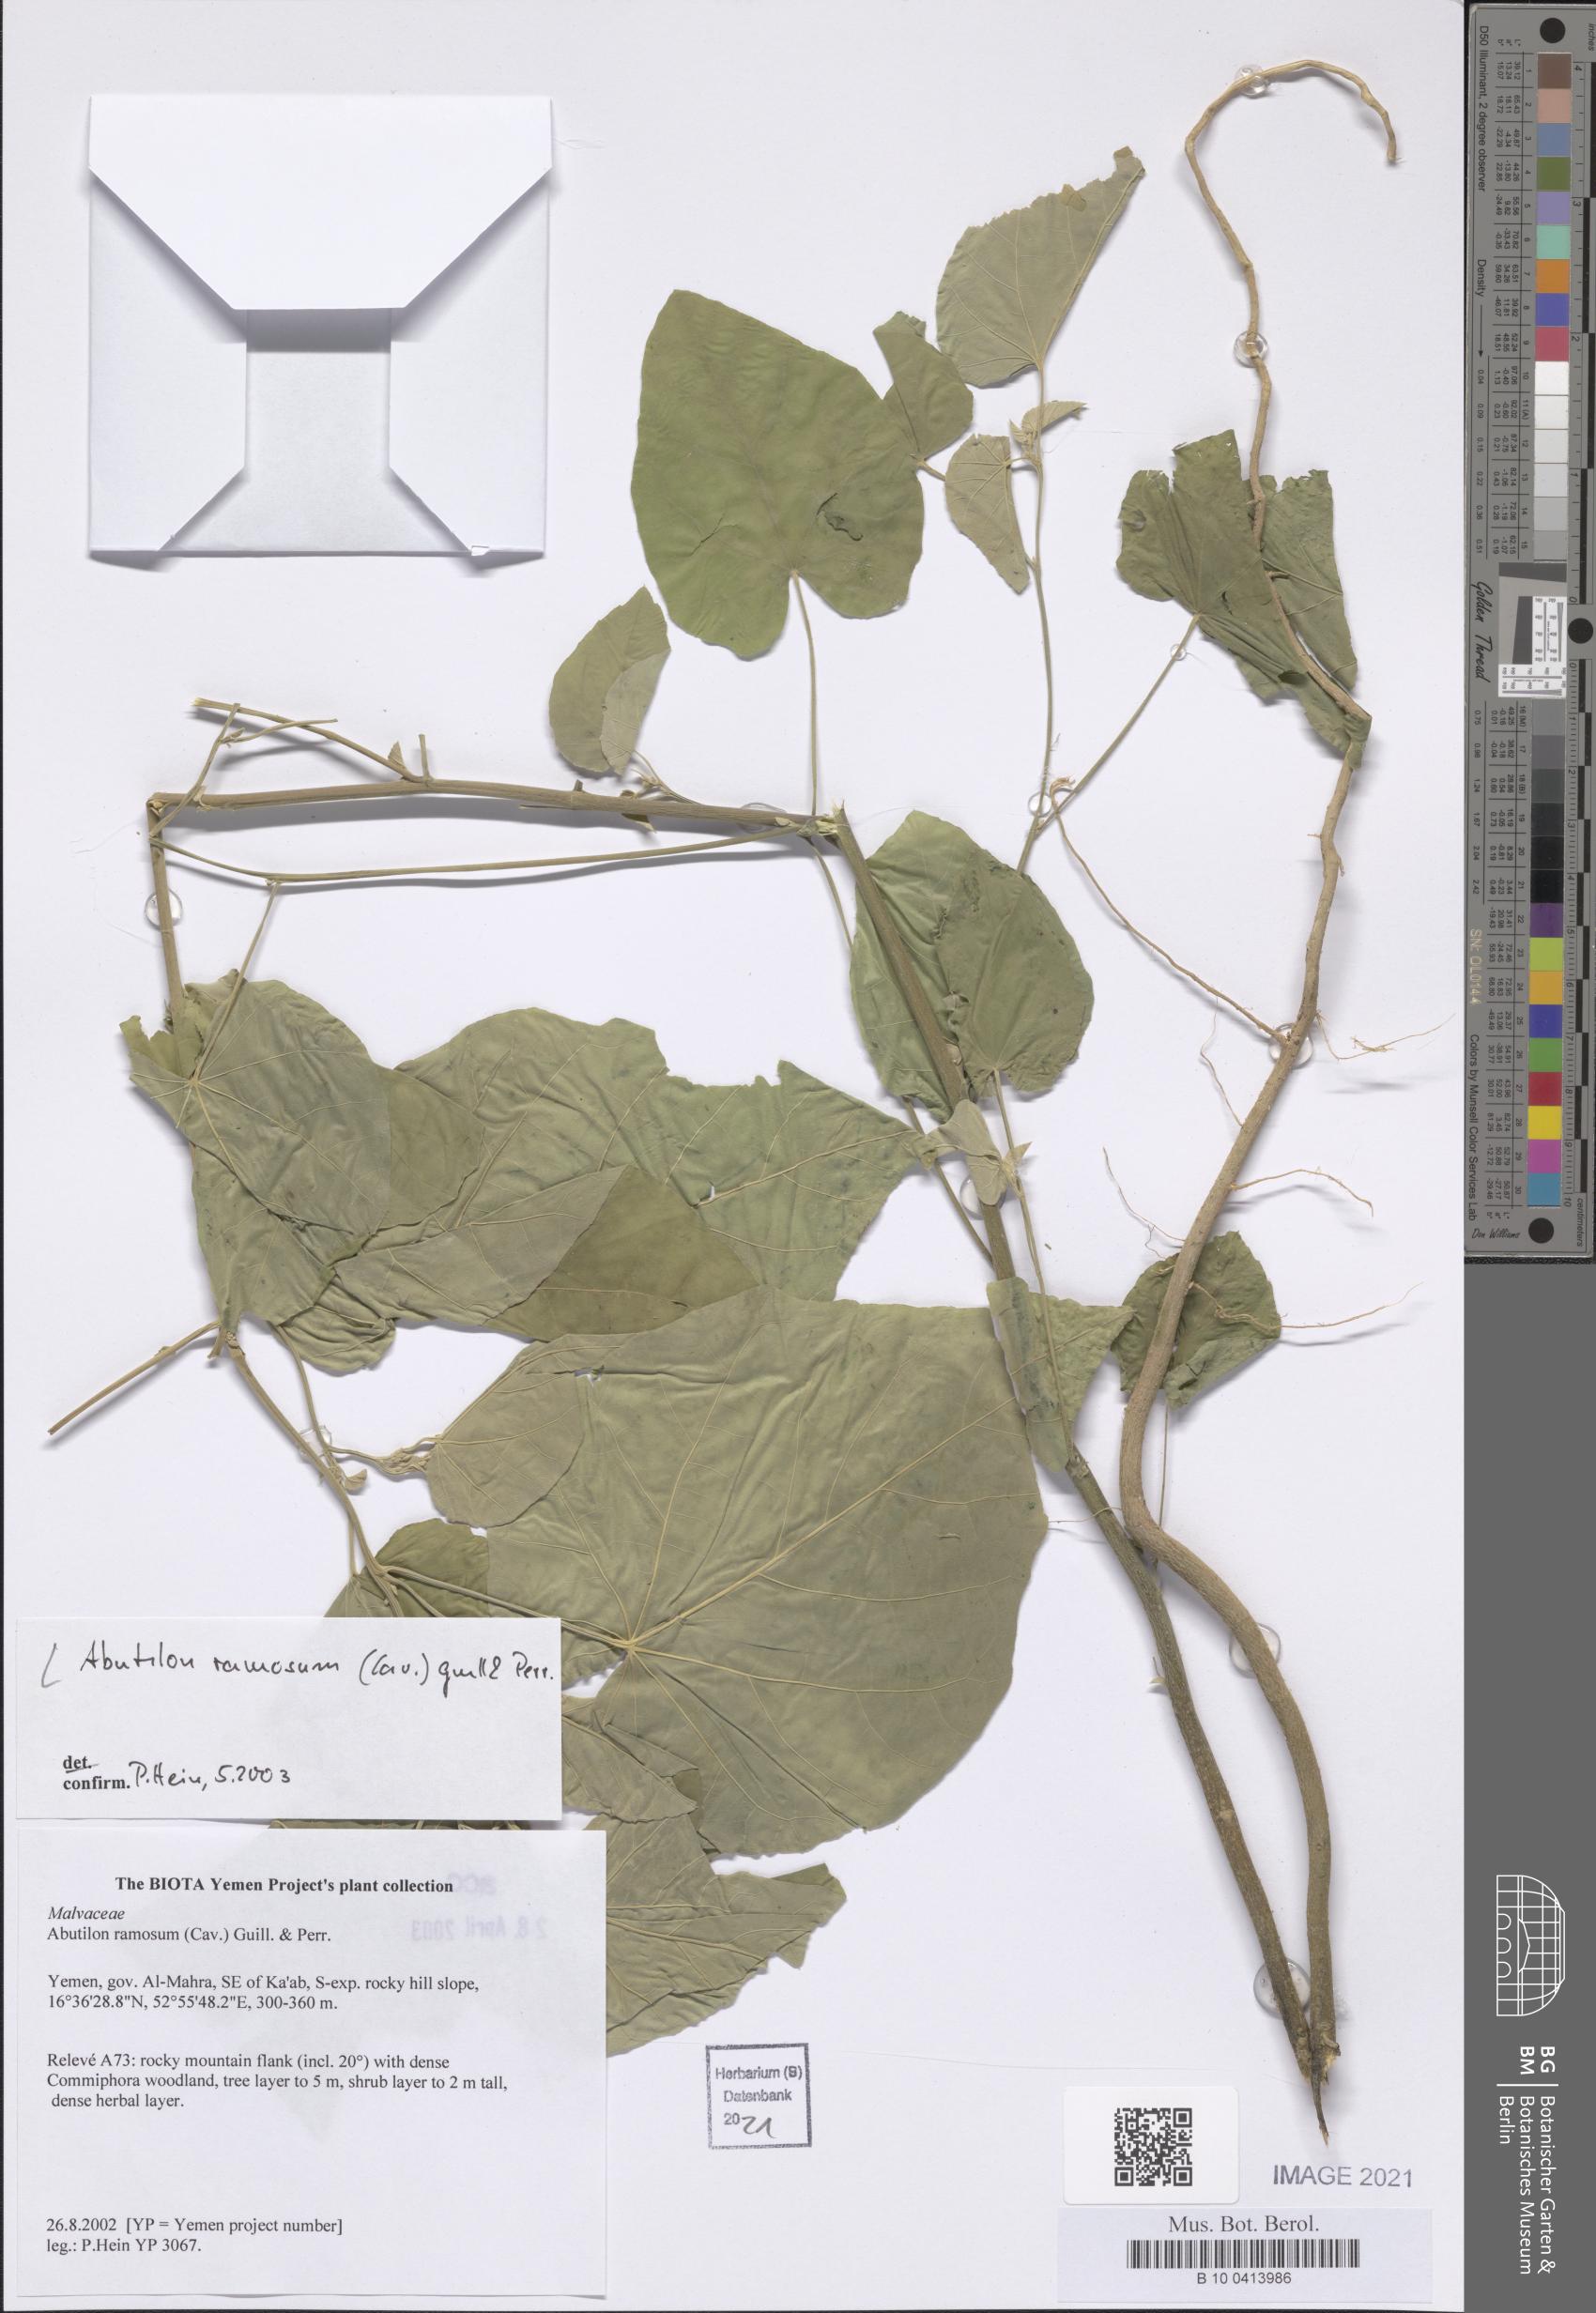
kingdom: Plantae
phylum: Tracheophyta
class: Magnoliopsida
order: Malvales
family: Malvaceae
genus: Abutilon
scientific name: Abutilon ramosum
